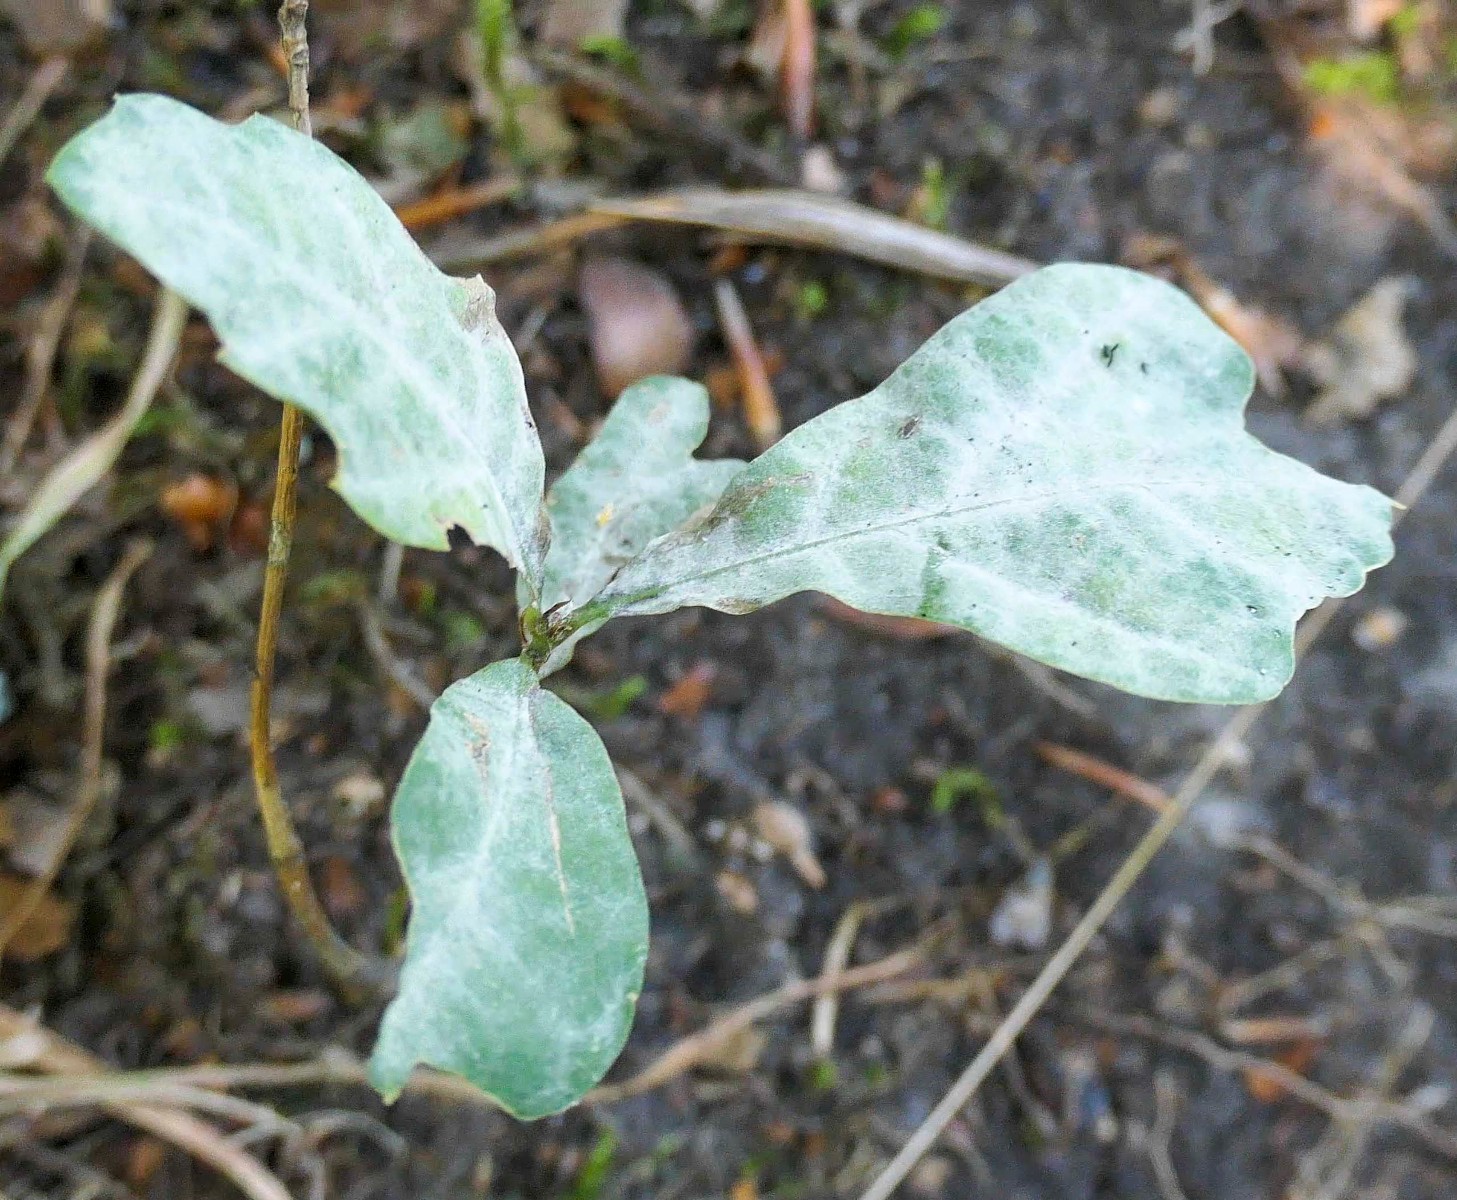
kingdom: Fungi
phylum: Ascomycota
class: Leotiomycetes
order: Helotiales
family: Erysiphaceae
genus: Erysiphe
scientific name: Erysiphe alphitoides
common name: ege-meldug
